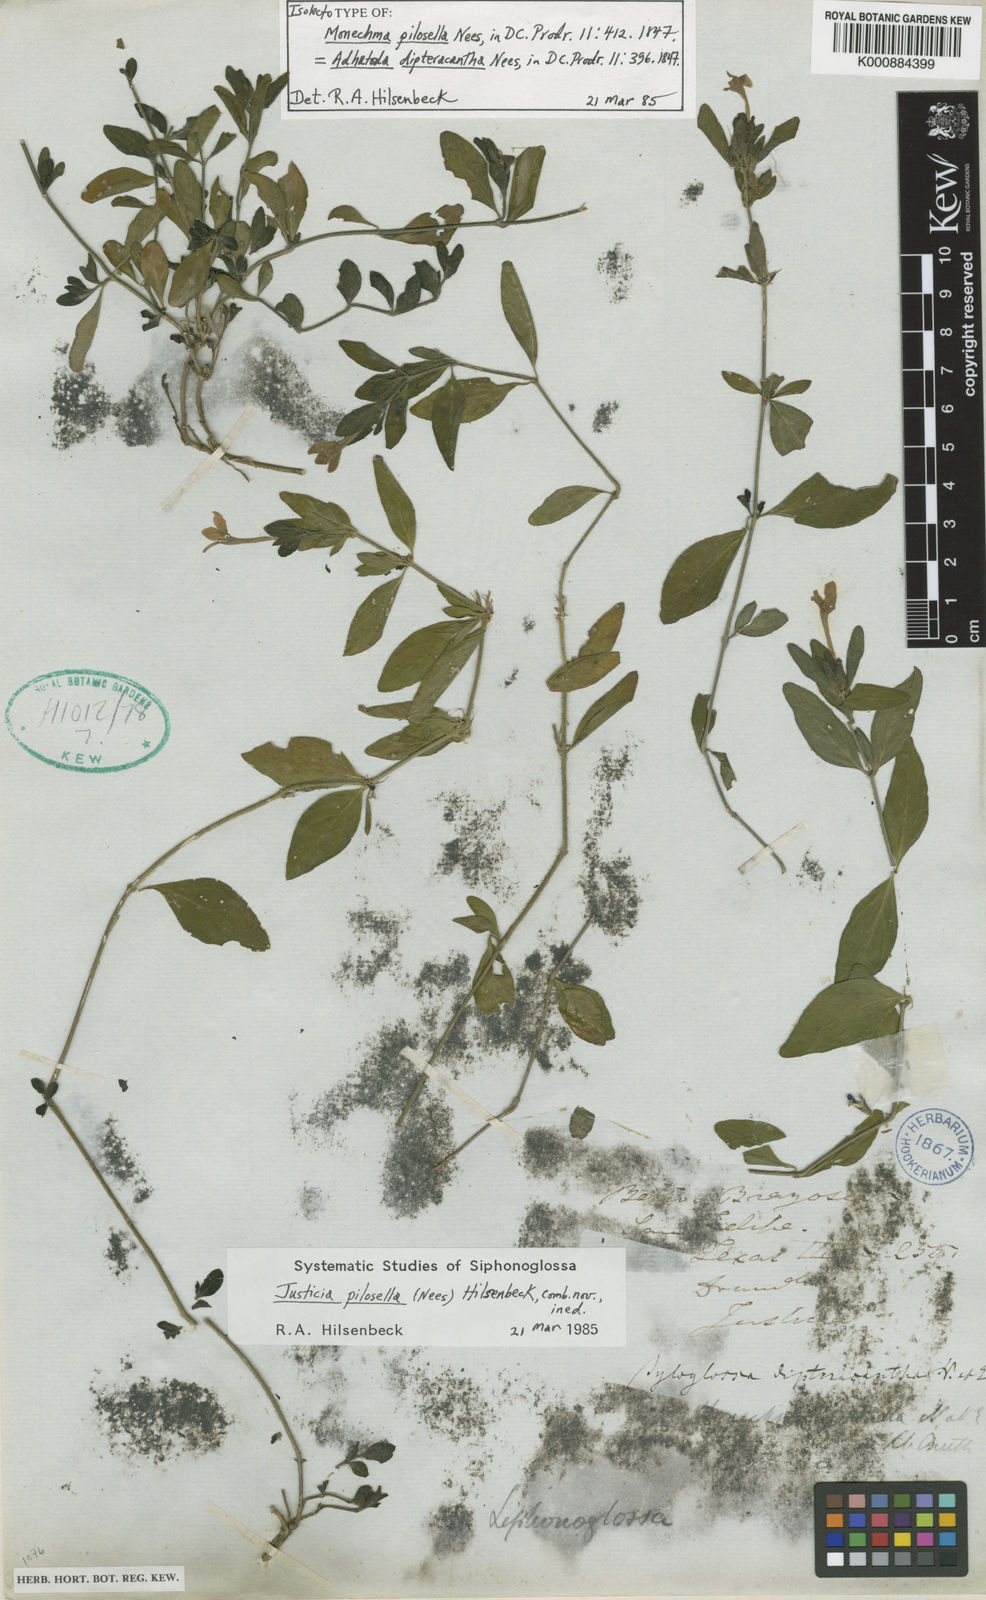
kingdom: Plantae
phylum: Tracheophyta
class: Magnoliopsida
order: Lamiales
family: Acanthaceae
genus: Justicia
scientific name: Justicia pilosella
